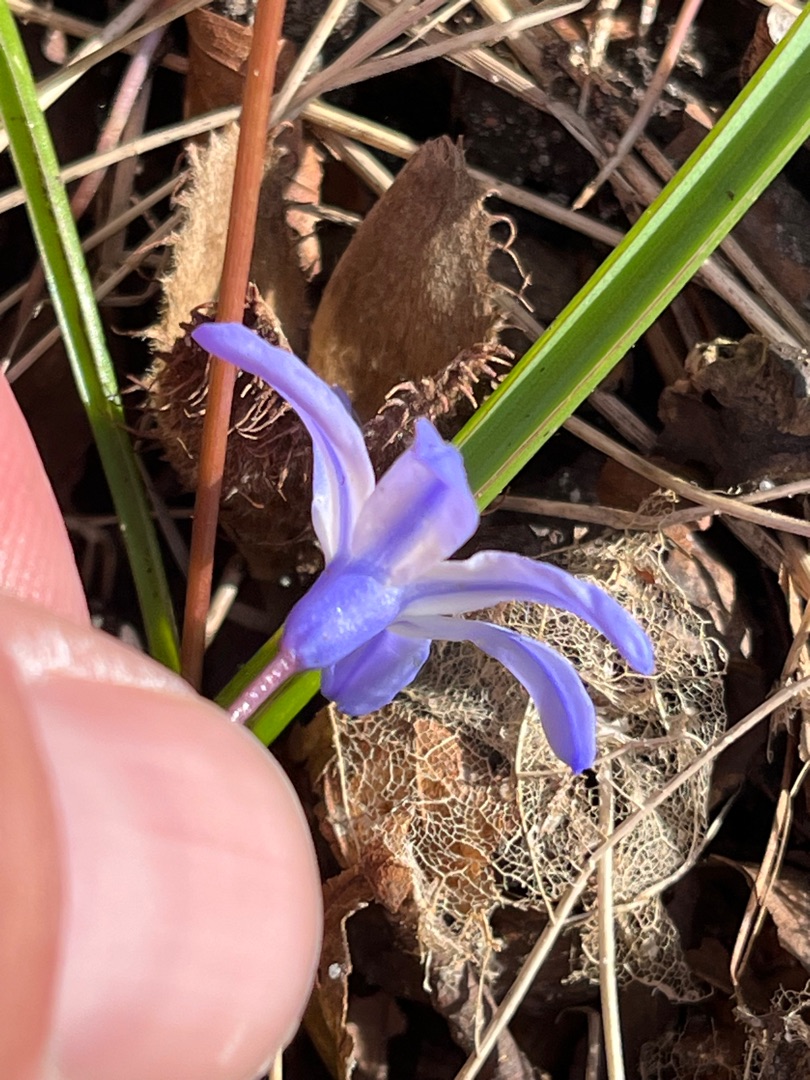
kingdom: Plantae
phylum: Tracheophyta
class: Liliopsida
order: Asparagales
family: Asparagaceae
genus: Scilla
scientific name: Scilla forbesii
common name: Almindelig snepryd
